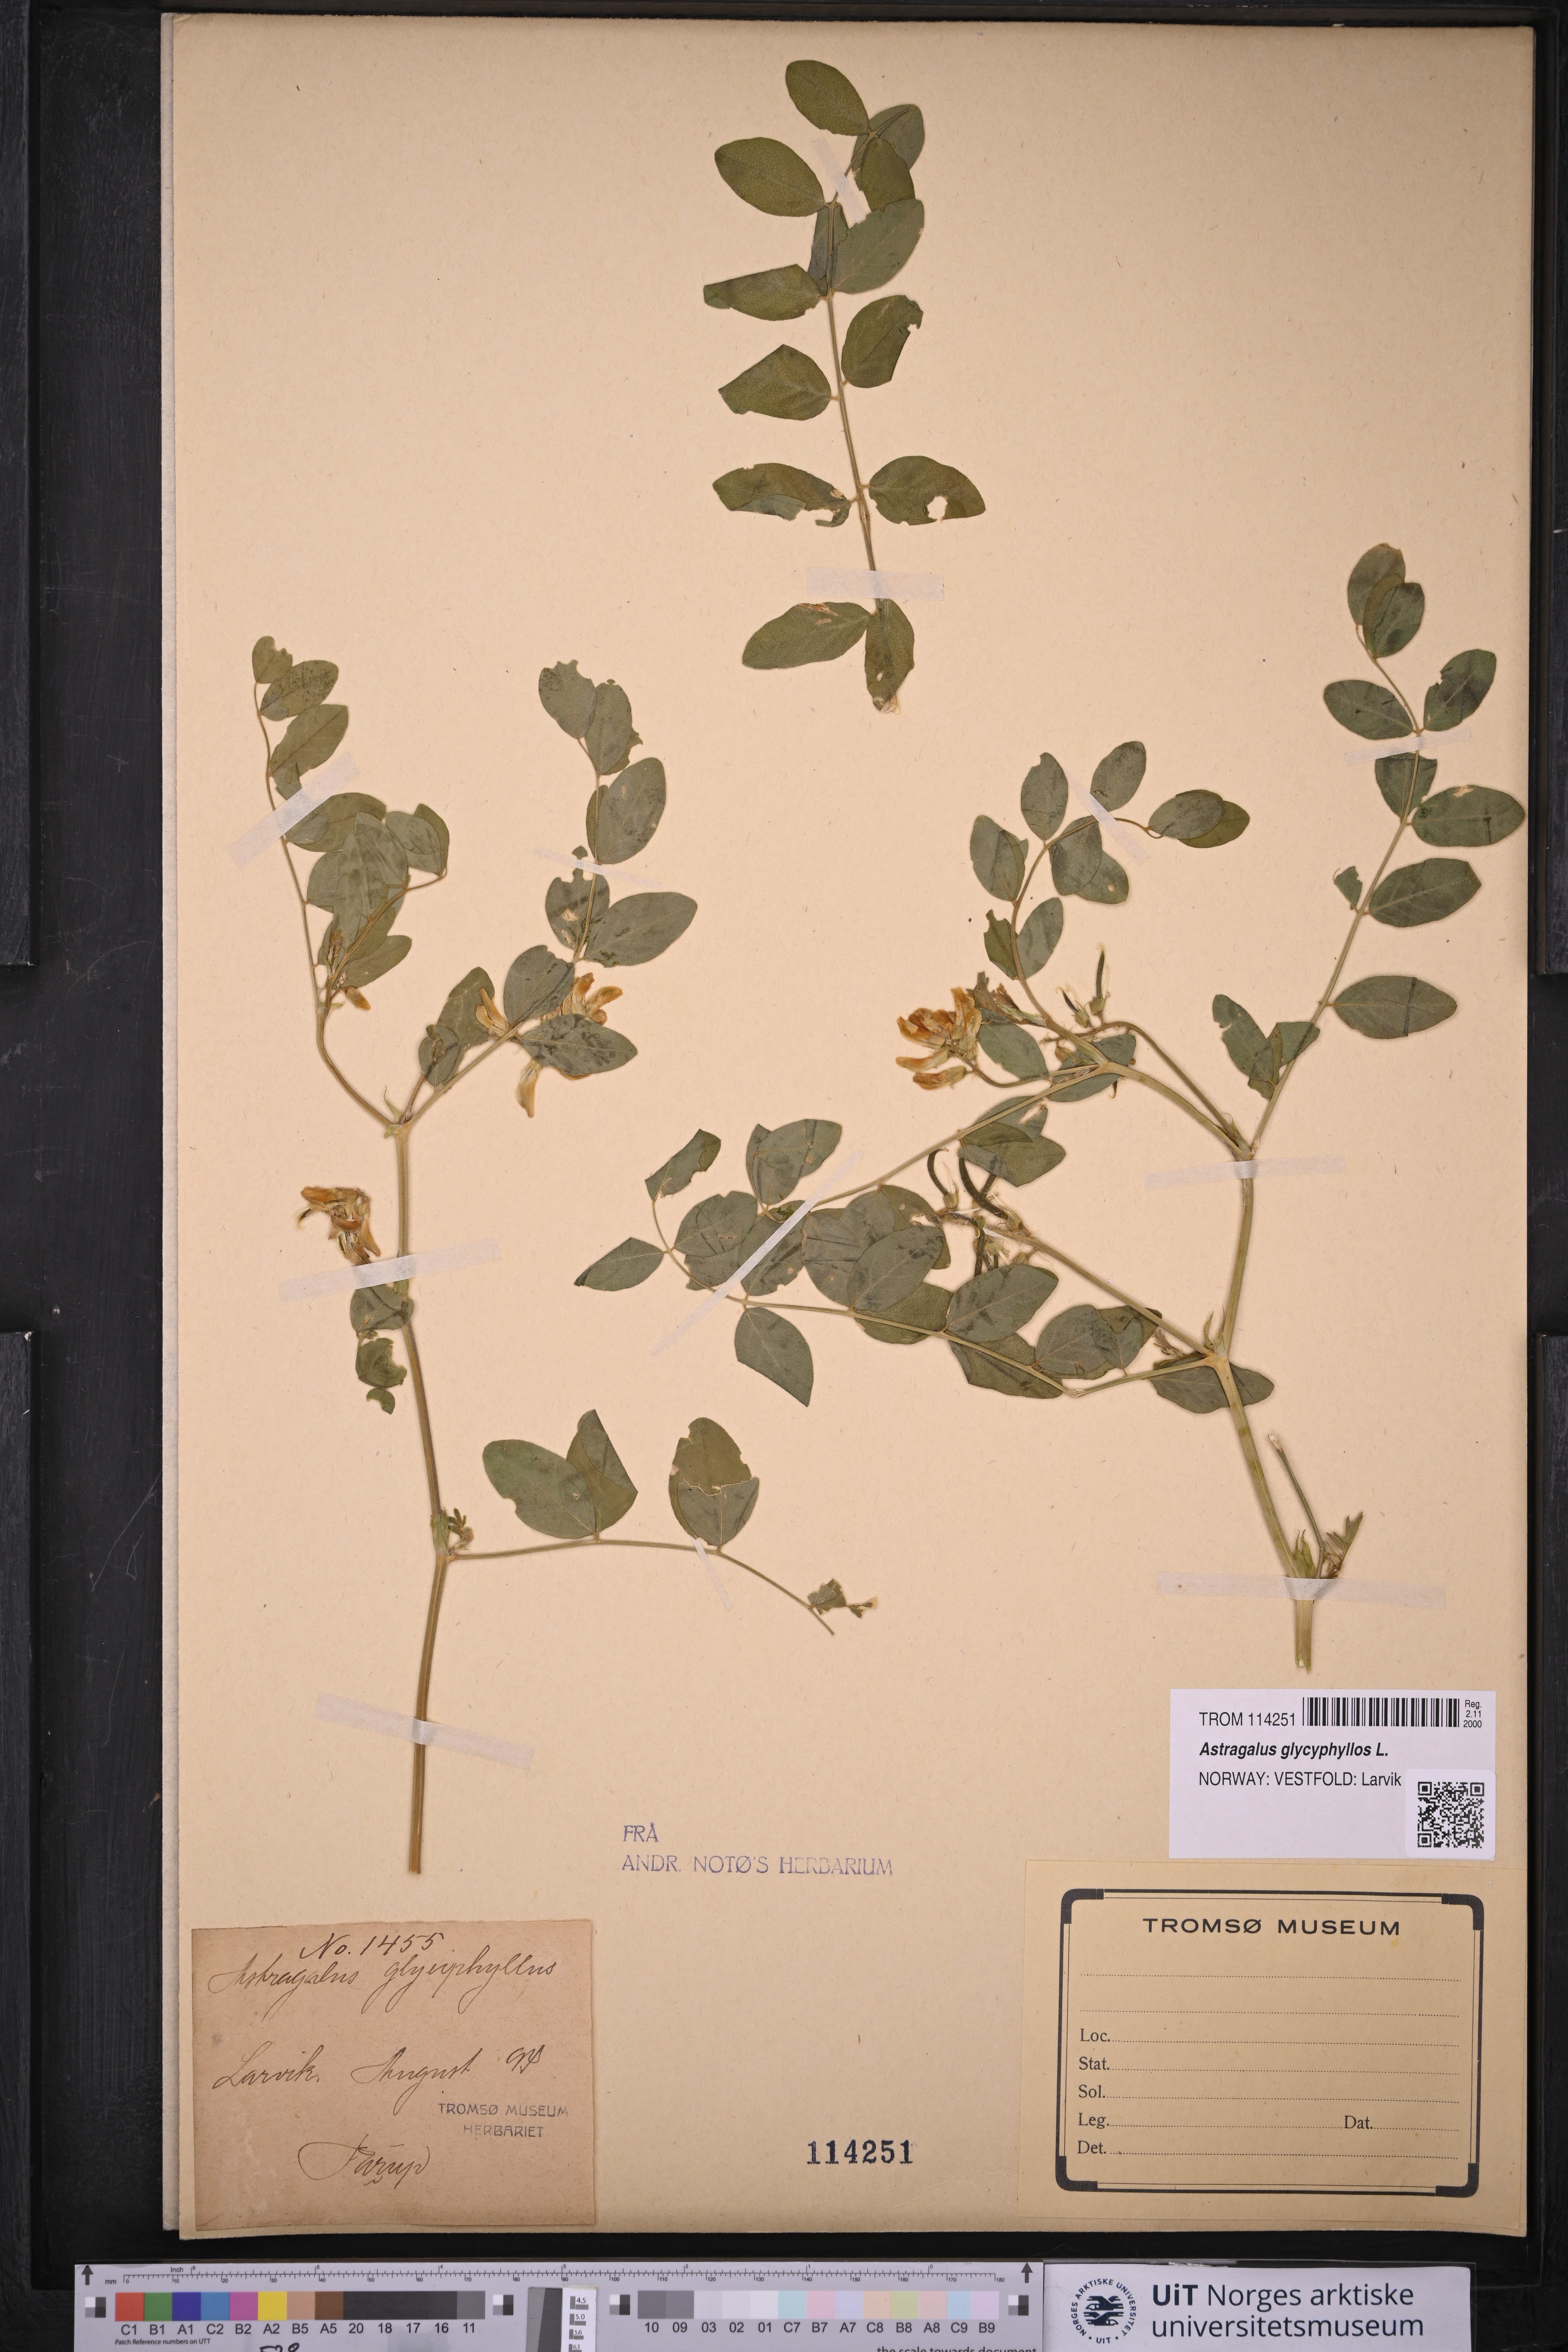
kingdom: Plantae
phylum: Tracheophyta
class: Magnoliopsida
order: Fabales
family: Fabaceae
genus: Astragalus
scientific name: Astragalus glycyphyllos
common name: Wild liquorice
